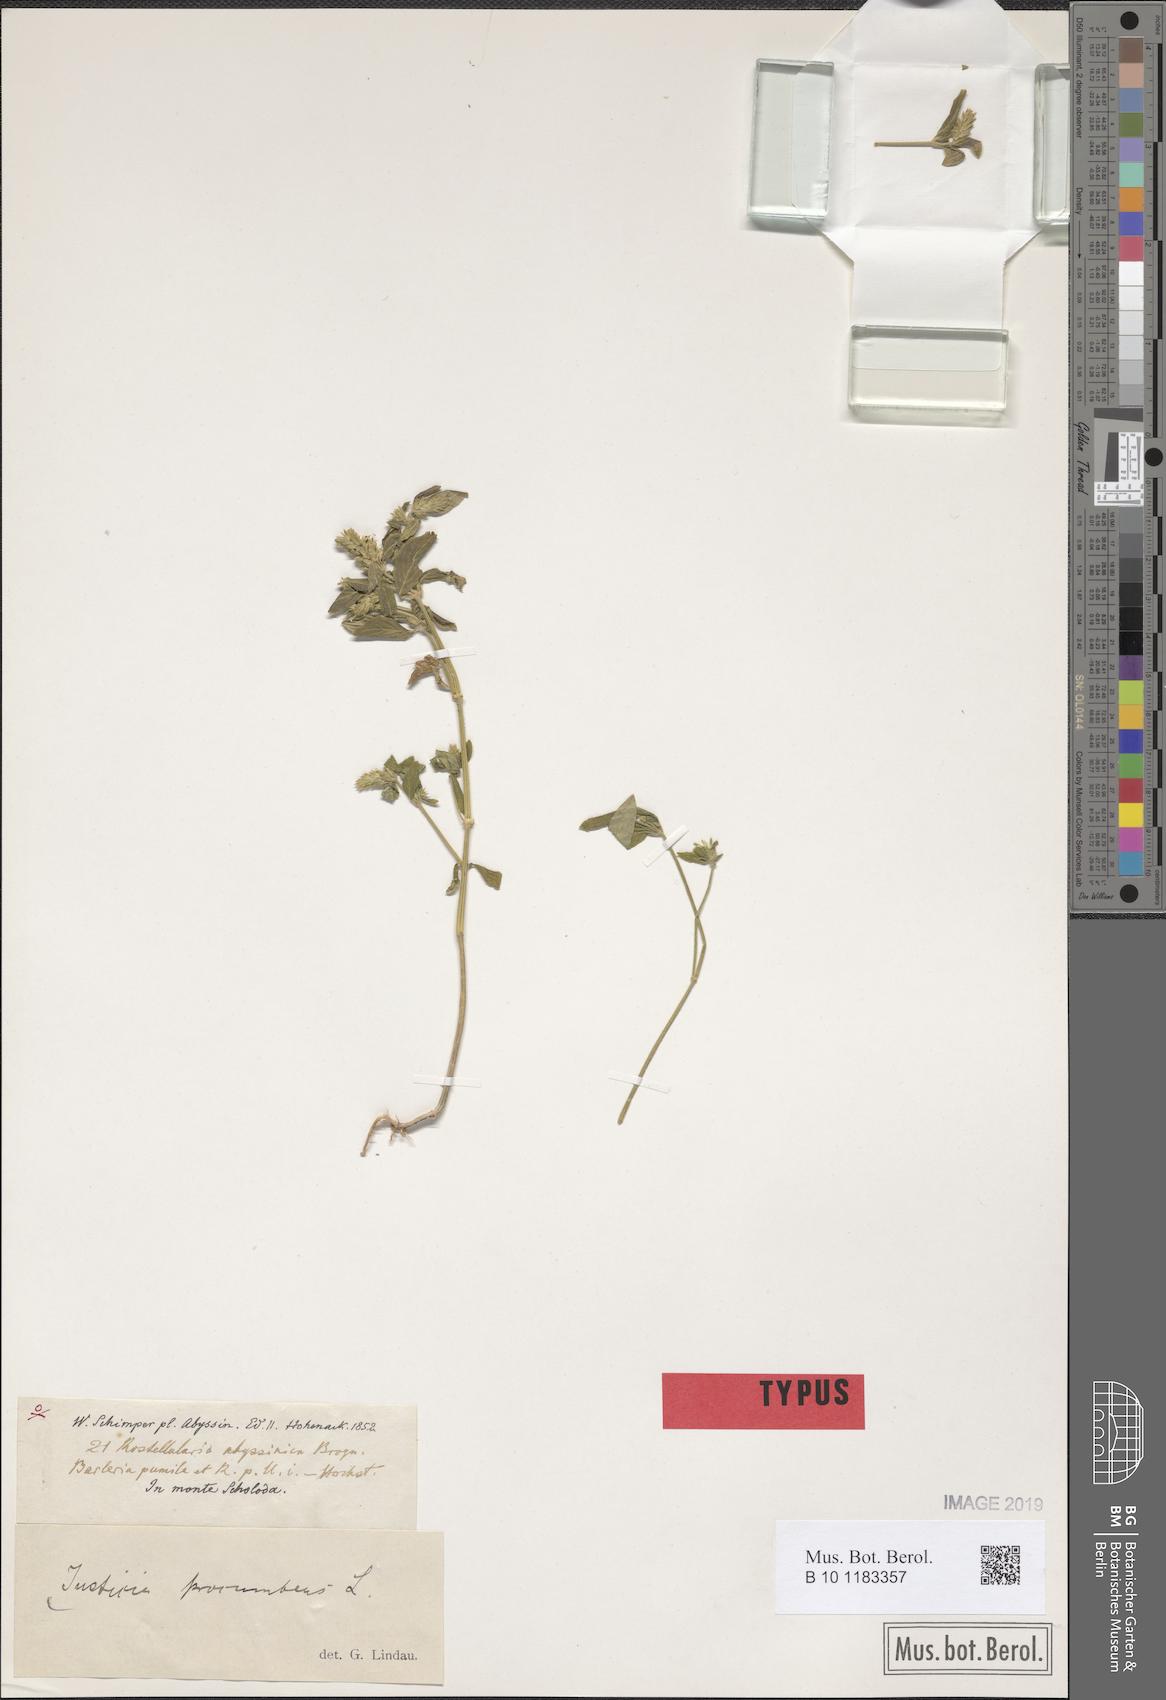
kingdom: Plantae
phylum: Tracheophyta
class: Magnoliopsida
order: Lamiales
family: Acanthaceae
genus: Rostellularia
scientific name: Rostellularia procumbens
